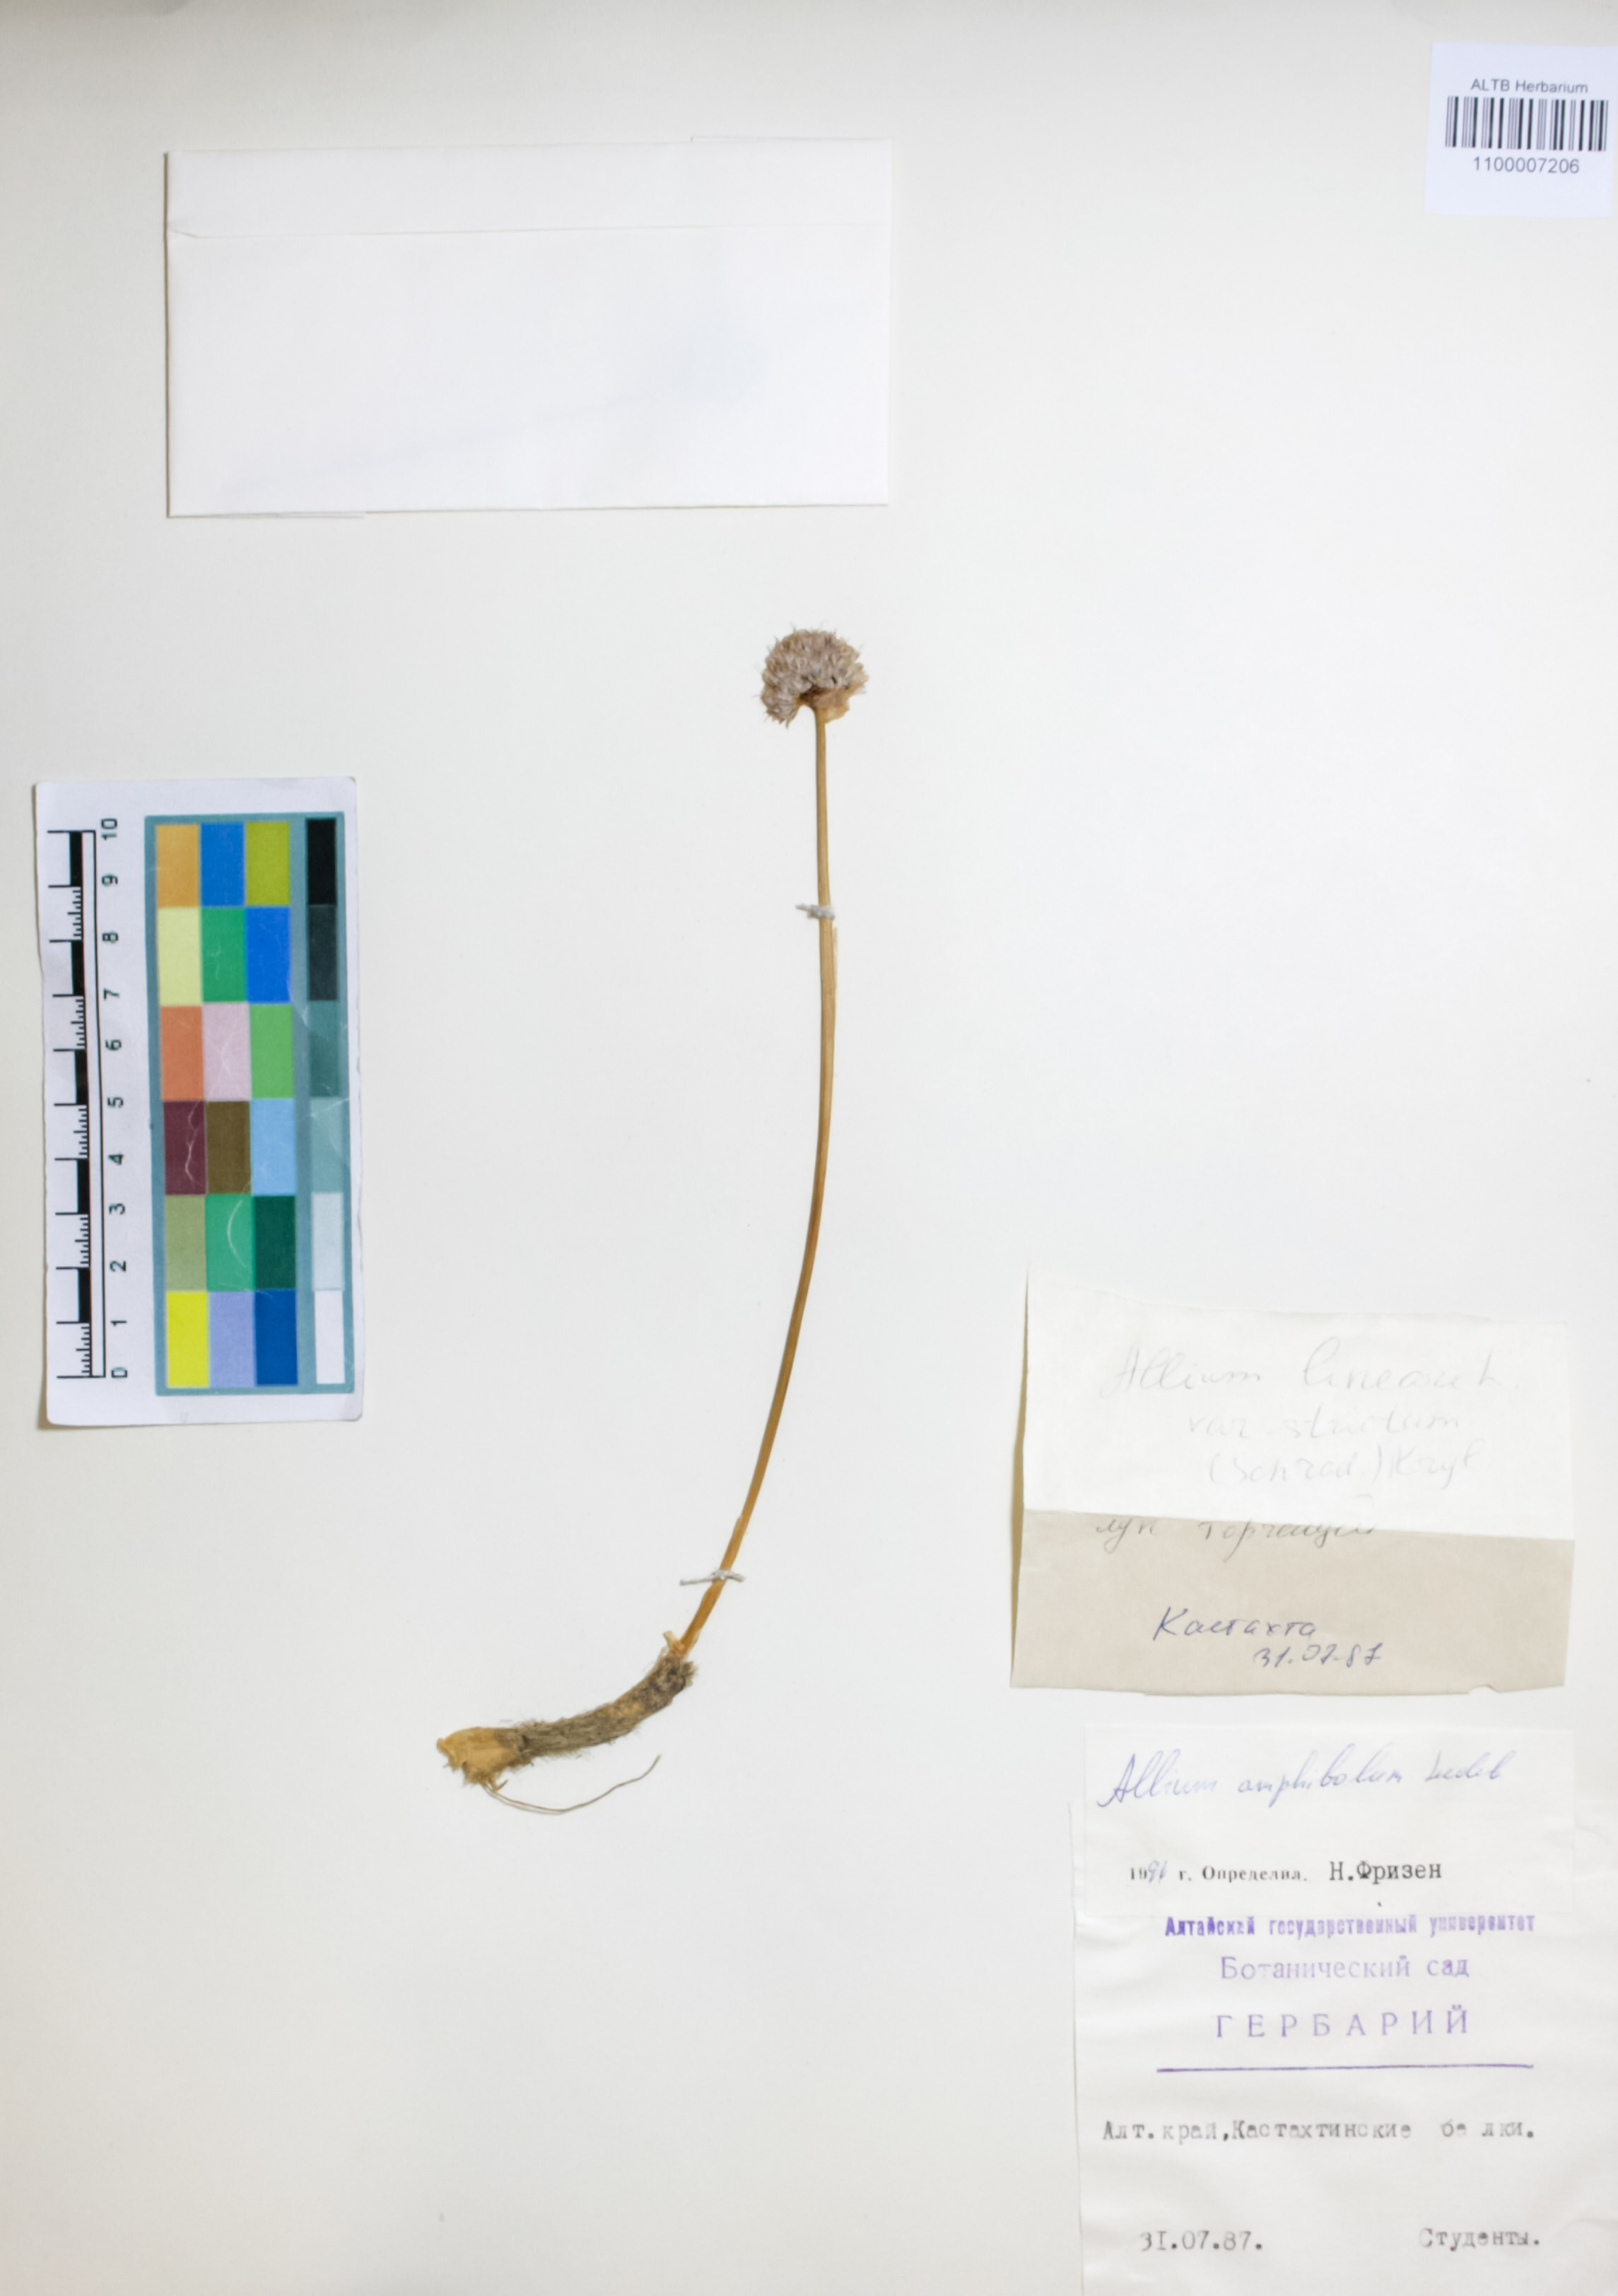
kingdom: Plantae
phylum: Tracheophyta
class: Liliopsida
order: Asparagales
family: Amaryllidaceae
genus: Allium
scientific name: Allium amphibolum
